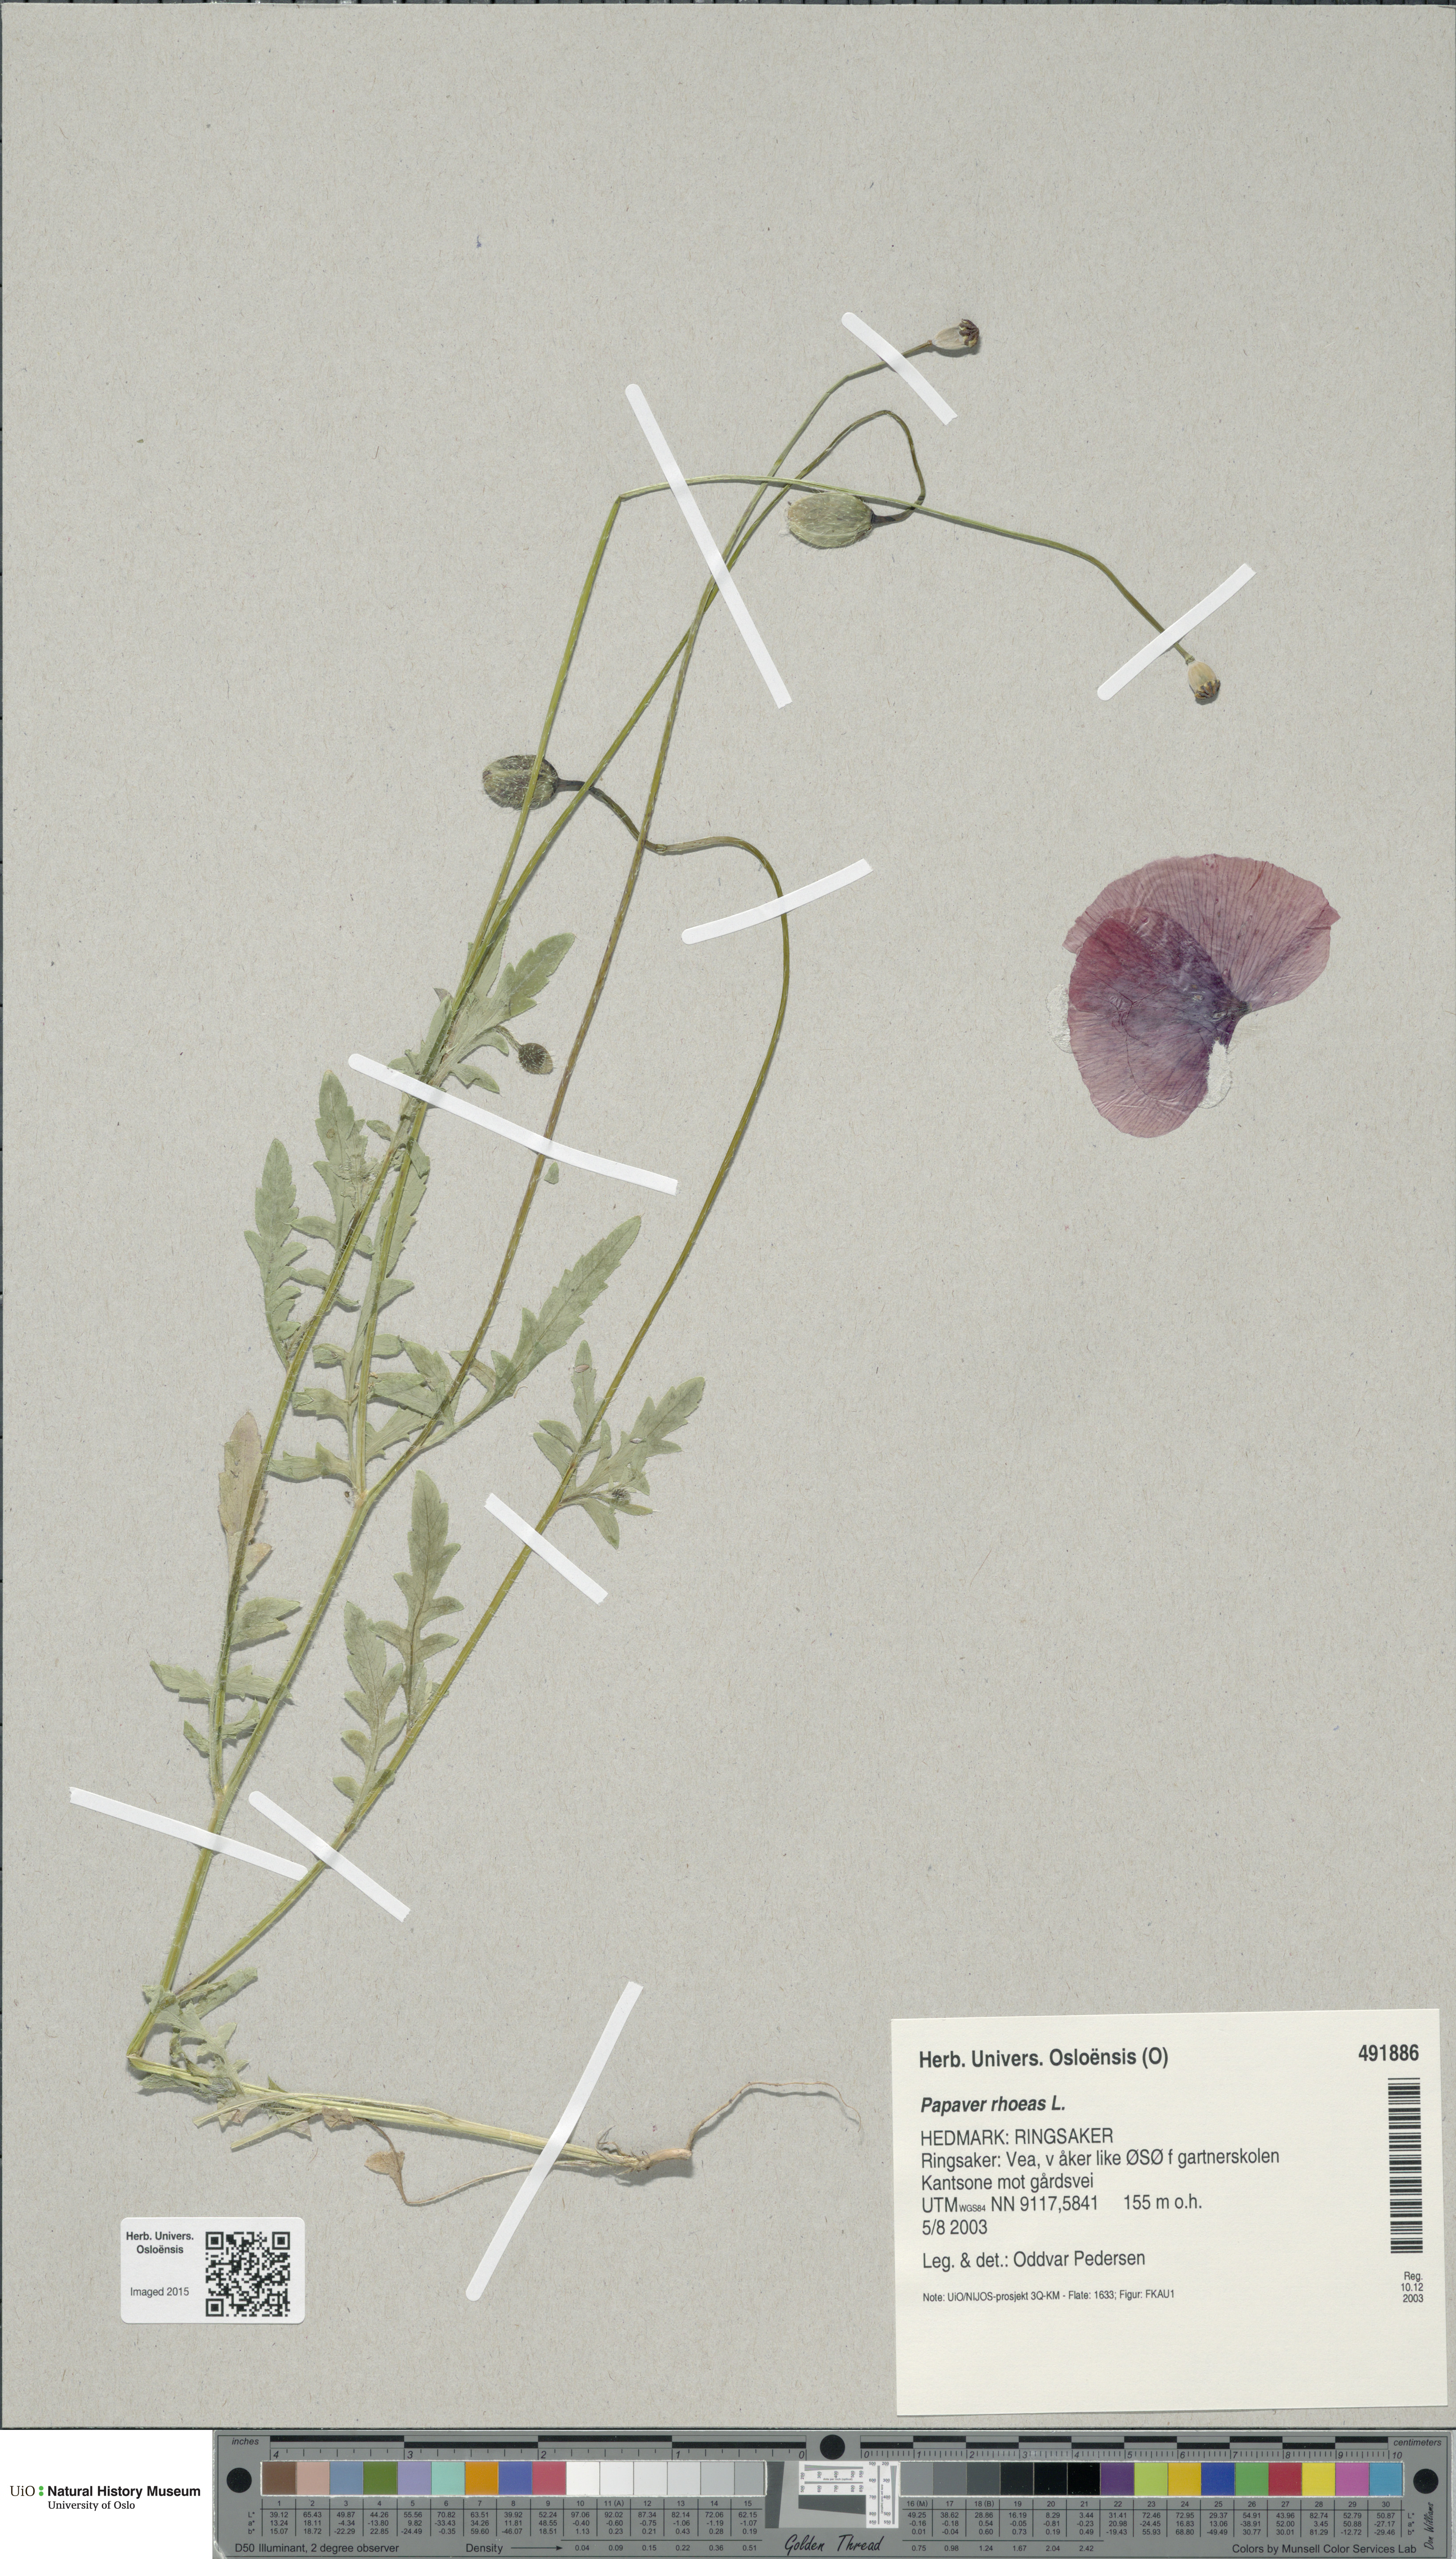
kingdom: Plantae
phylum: Tracheophyta
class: Magnoliopsida
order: Ranunculales
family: Papaveraceae
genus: Papaver
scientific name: Papaver rhoeas
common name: Corn poppy
